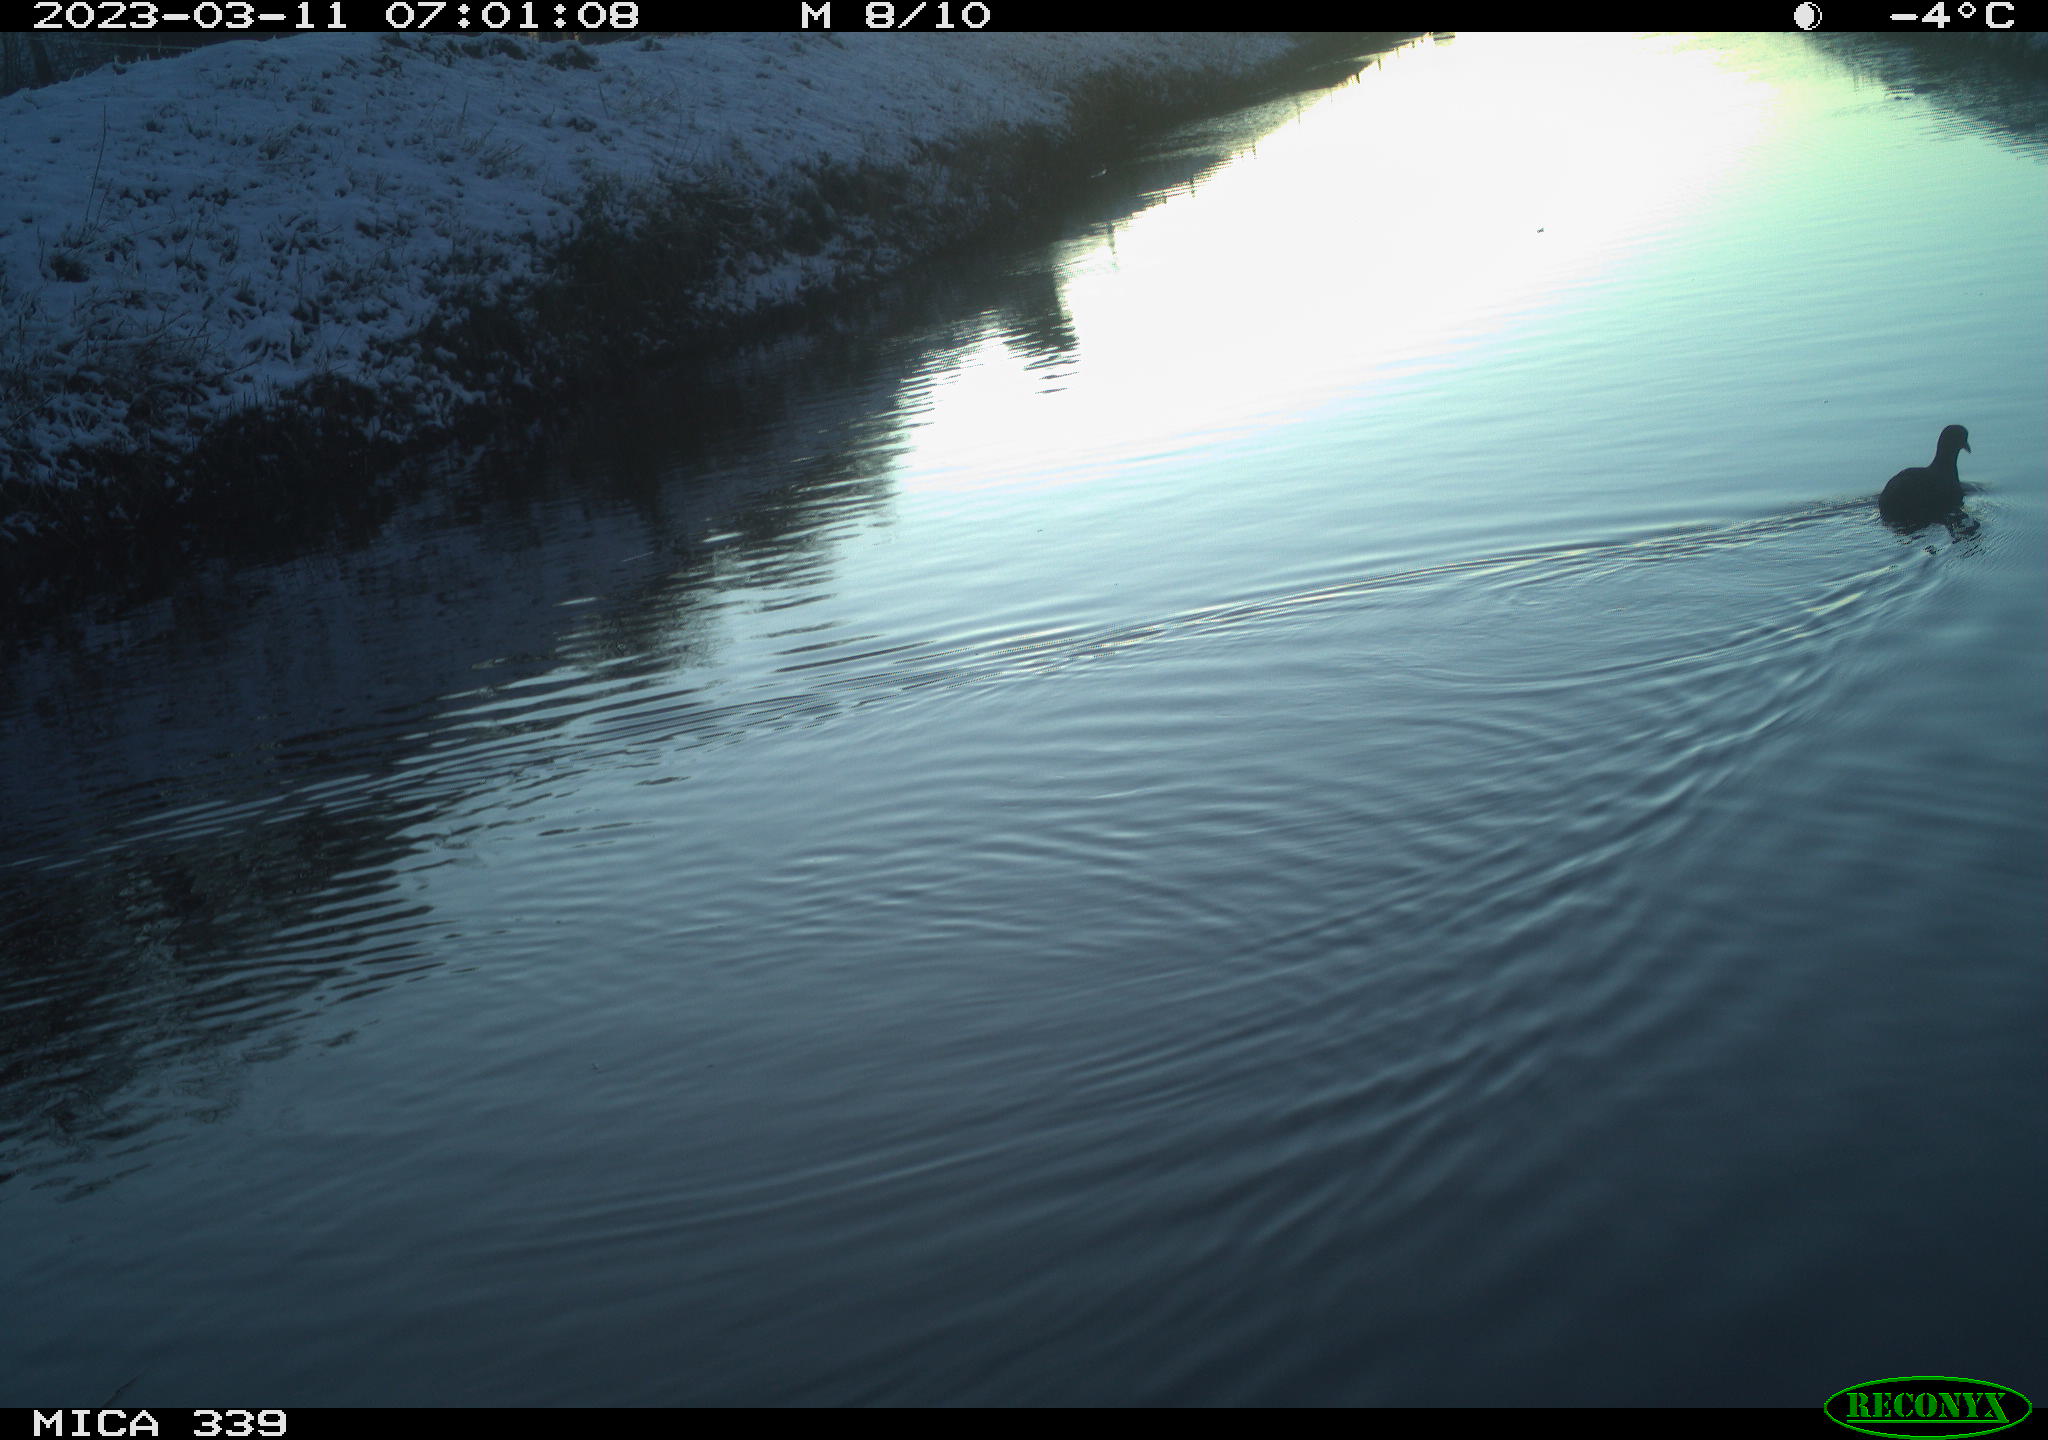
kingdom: Animalia
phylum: Chordata
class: Aves
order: Gruiformes
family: Rallidae
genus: Fulica
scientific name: Fulica atra
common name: Eurasian coot
